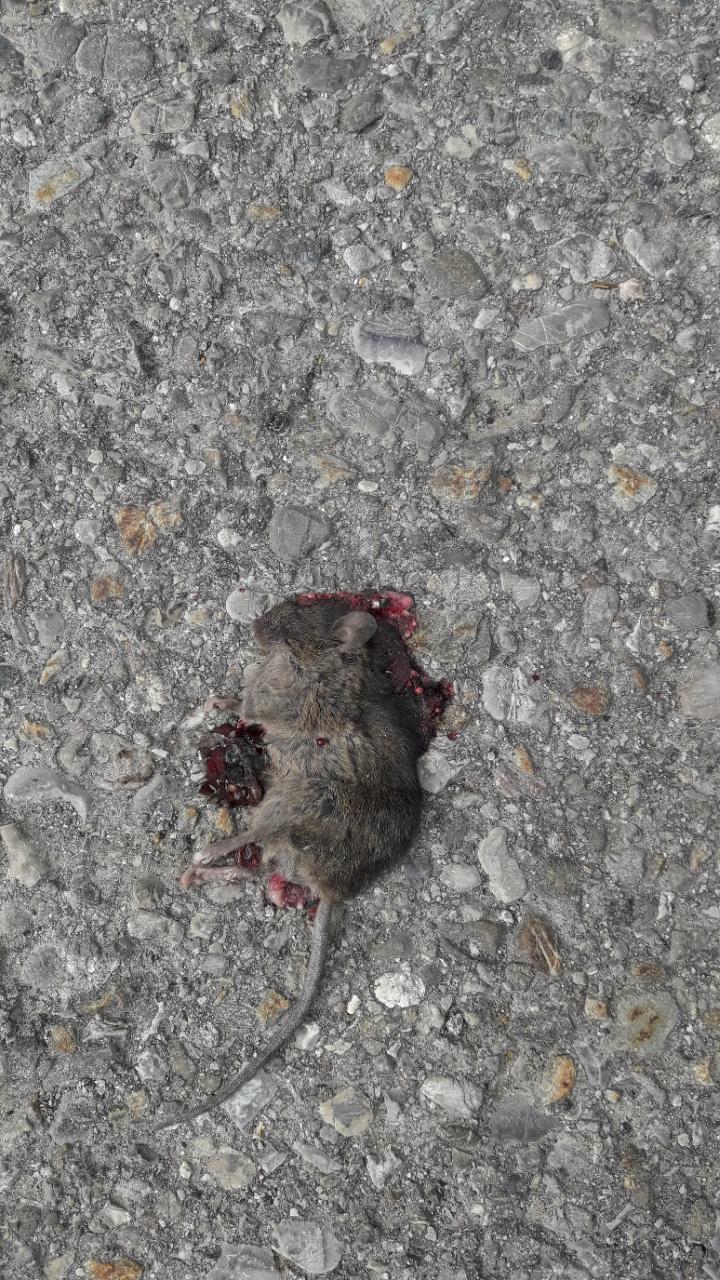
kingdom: Animalia
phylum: Chordata
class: Mammalia
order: Rodentia
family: Muridae
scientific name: Muridae
